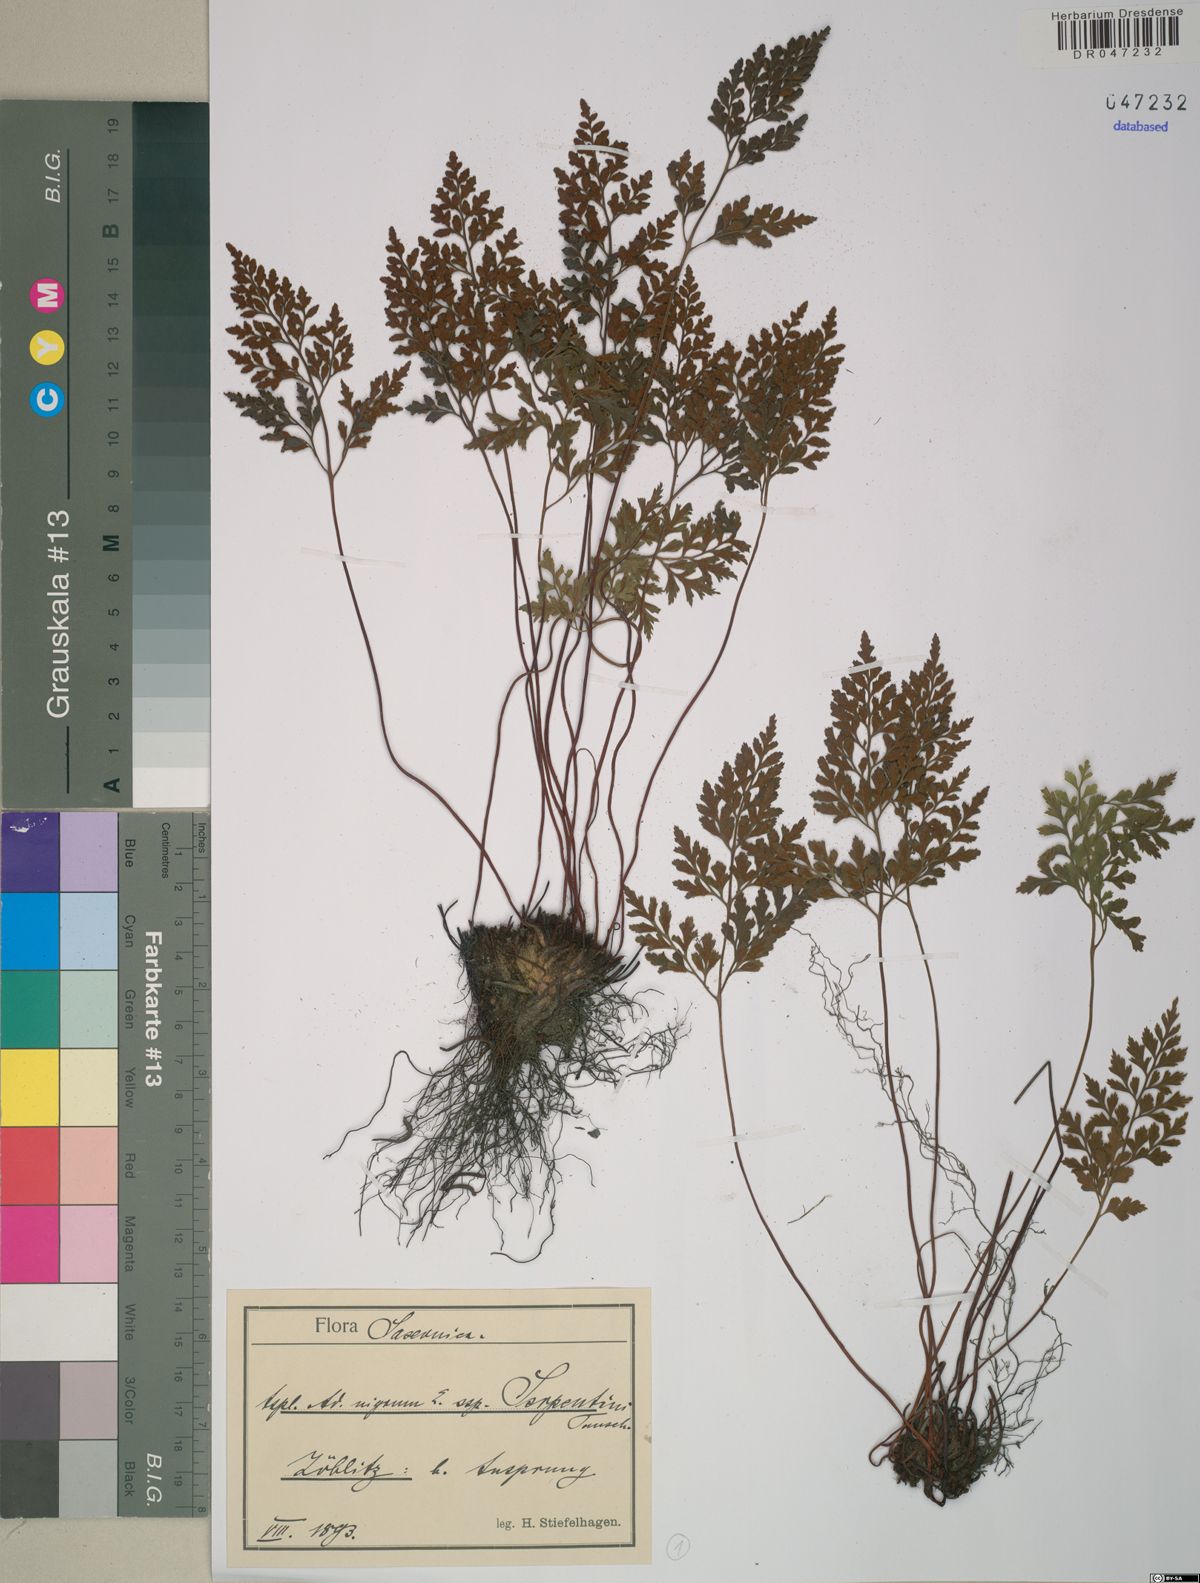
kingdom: Plantae
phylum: Tracheophyta
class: Polypodiopsida
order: Polypodiales
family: Aspleniaceae
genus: Asplenium
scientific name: Asplenium cuneifolium
